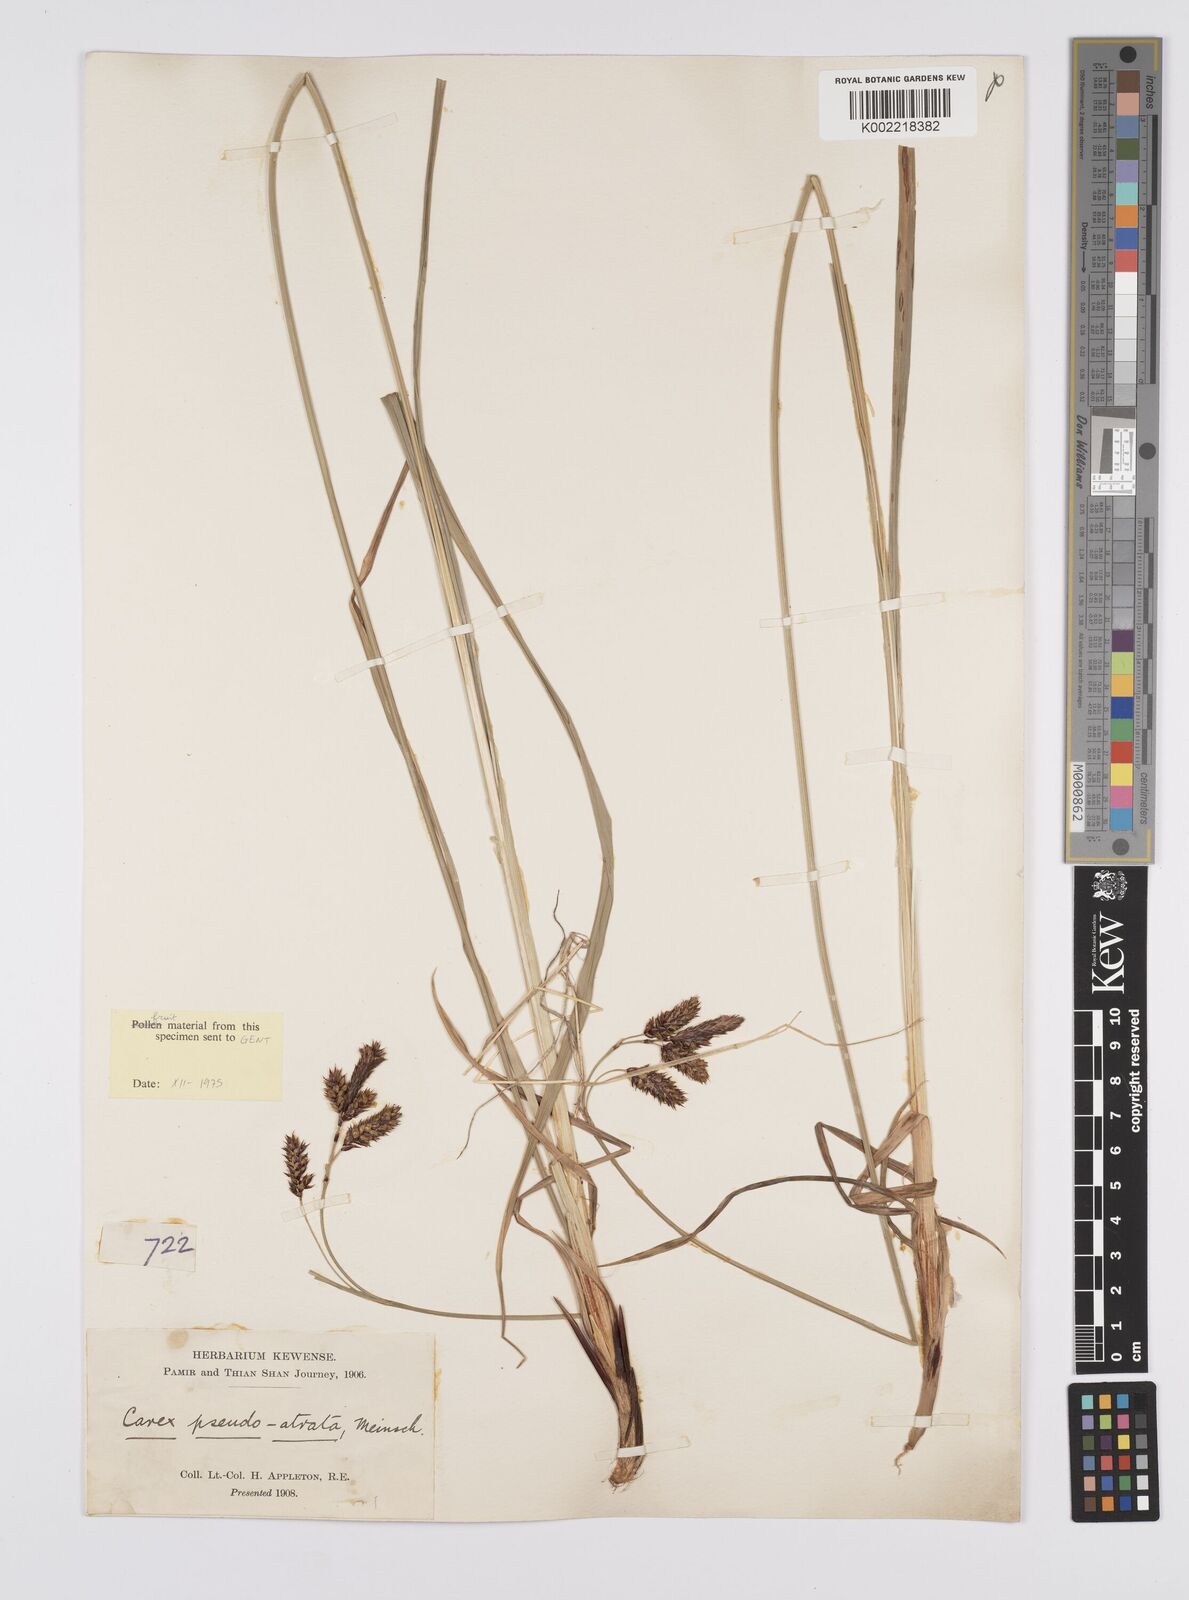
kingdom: Plantae
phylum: Tracheophyta
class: Liliopsida
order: Poales
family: Cyperaceae
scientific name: Cyperaceae
